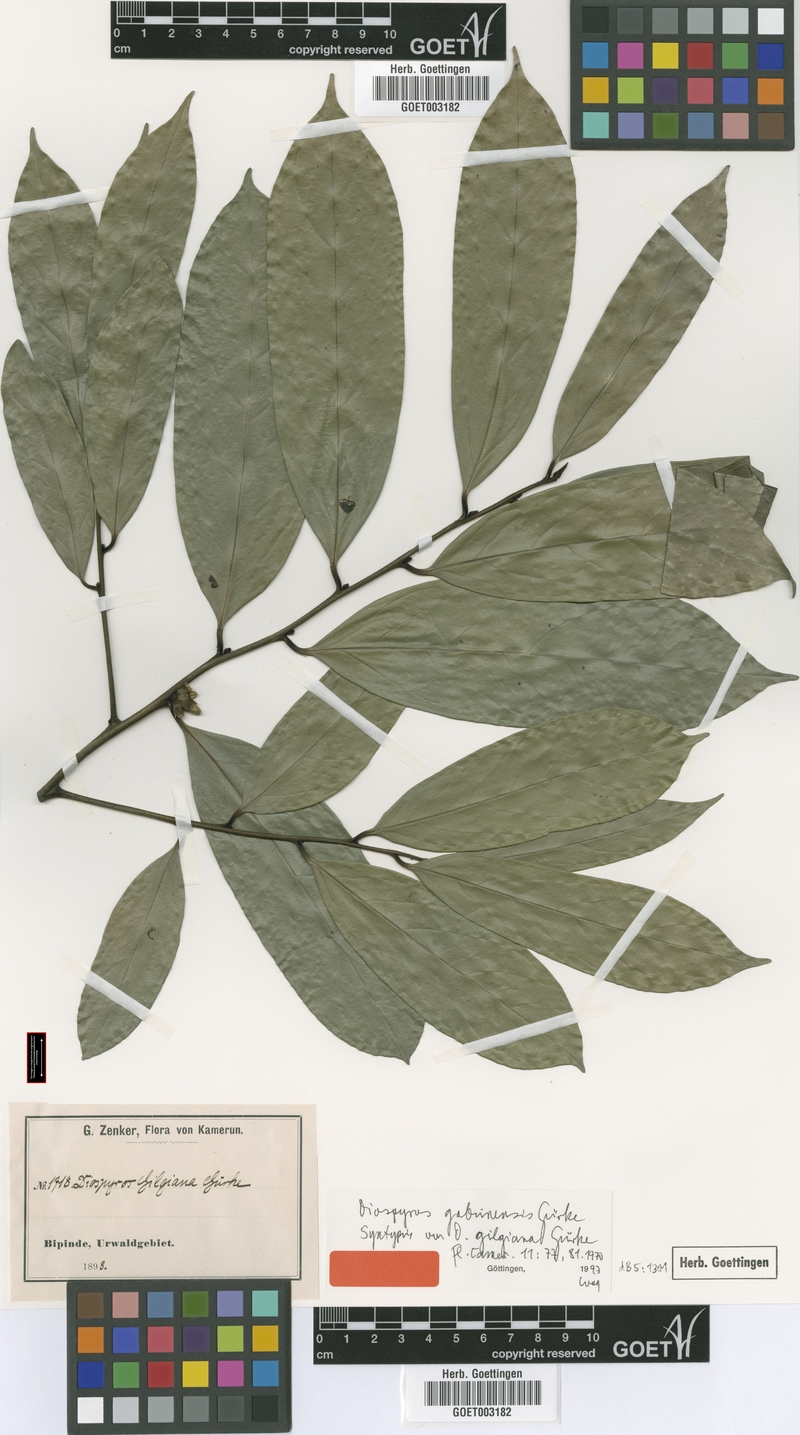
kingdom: Plantae
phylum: Tracheophyta
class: Magnoliopsida
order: Ericales
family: Ebenaceae
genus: Diospyros
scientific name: Diospyros gabunensis
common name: Flint bark tree
